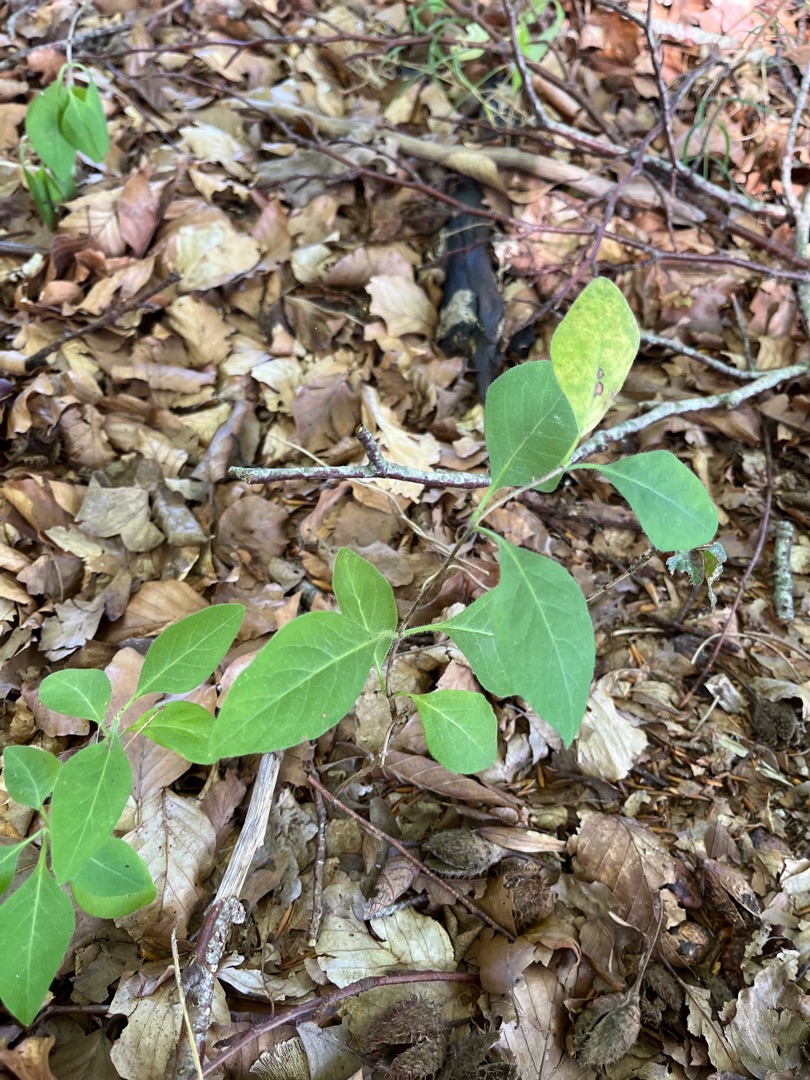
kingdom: Plantae
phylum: Tracheophyta
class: Magnoliopsida
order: Dipsacales
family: Caprifoliaceae
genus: Lonicera
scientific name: Lonicera periclymenum
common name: Almindelig gedeblad
